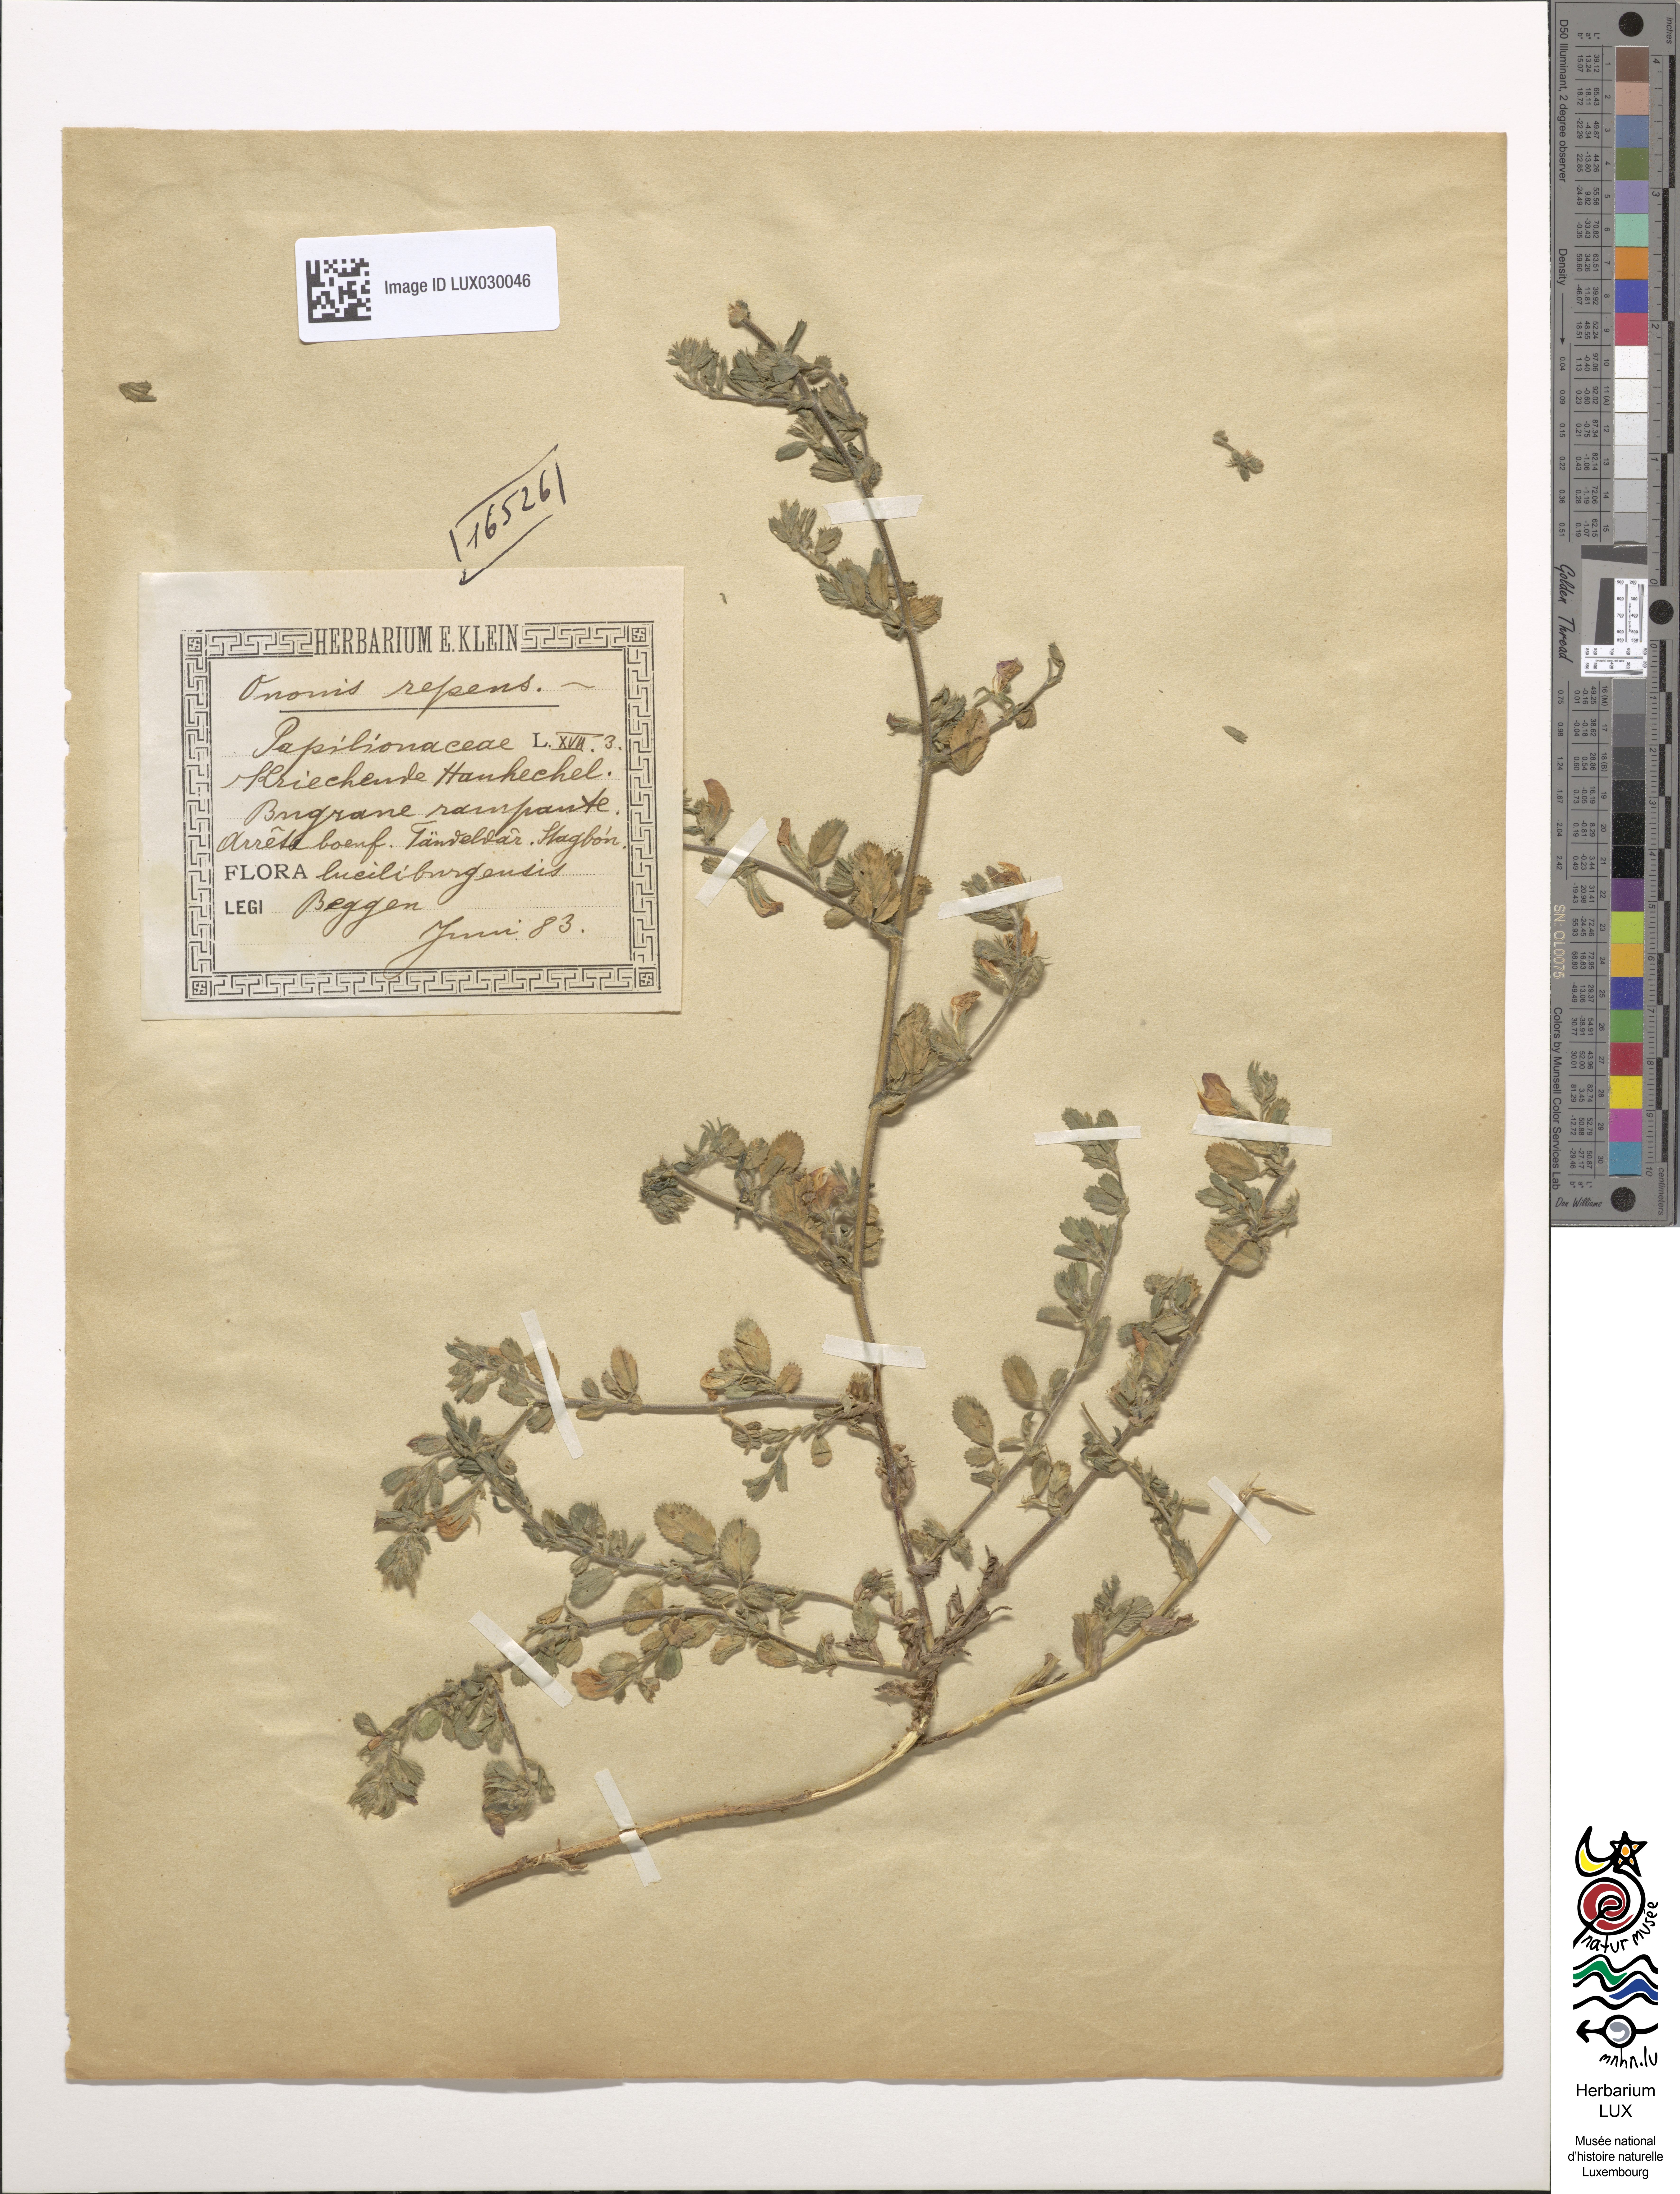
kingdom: Plantae
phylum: Tracheophyta
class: Magnoliopsida
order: Fabales
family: Fabaceae
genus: Ononis
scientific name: Ononis spinosa
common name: Spiny restharrow
